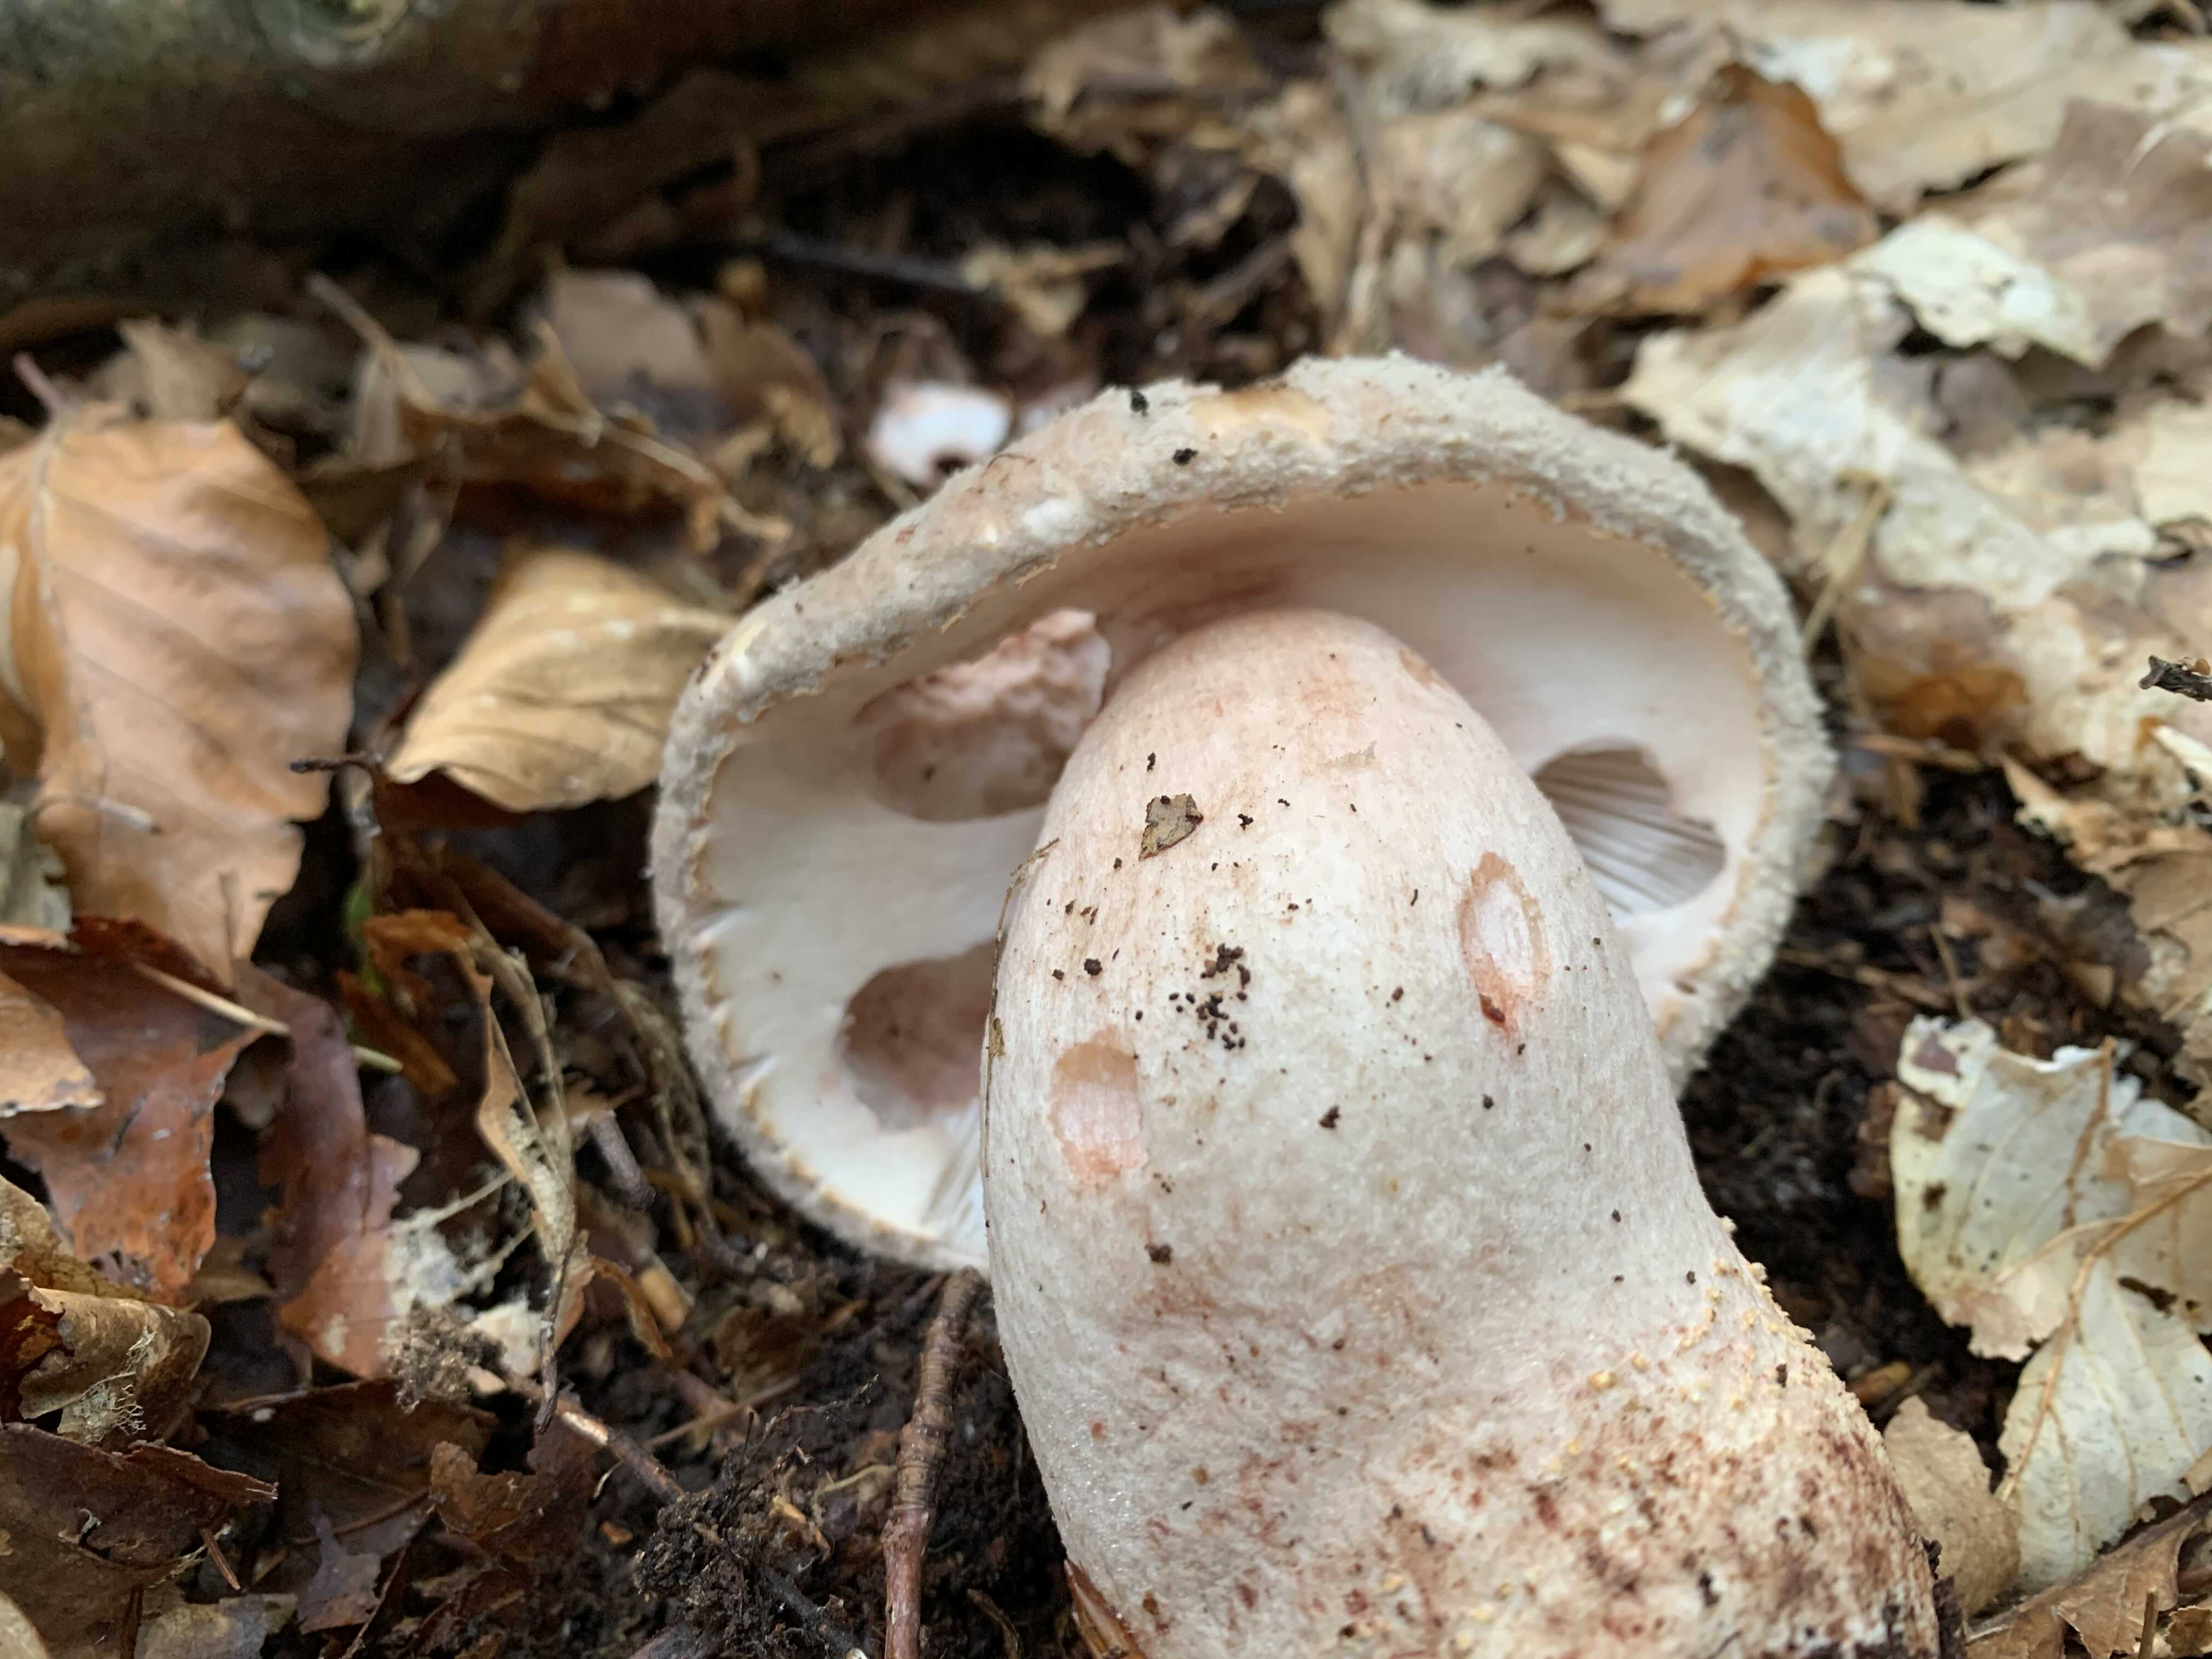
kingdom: Fungi
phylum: Basidiomycota
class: Agaricomycetes
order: Agaricales
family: Amanitaceae
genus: Amanita
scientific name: Amanita rubescens
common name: rødmende fluesvamp
